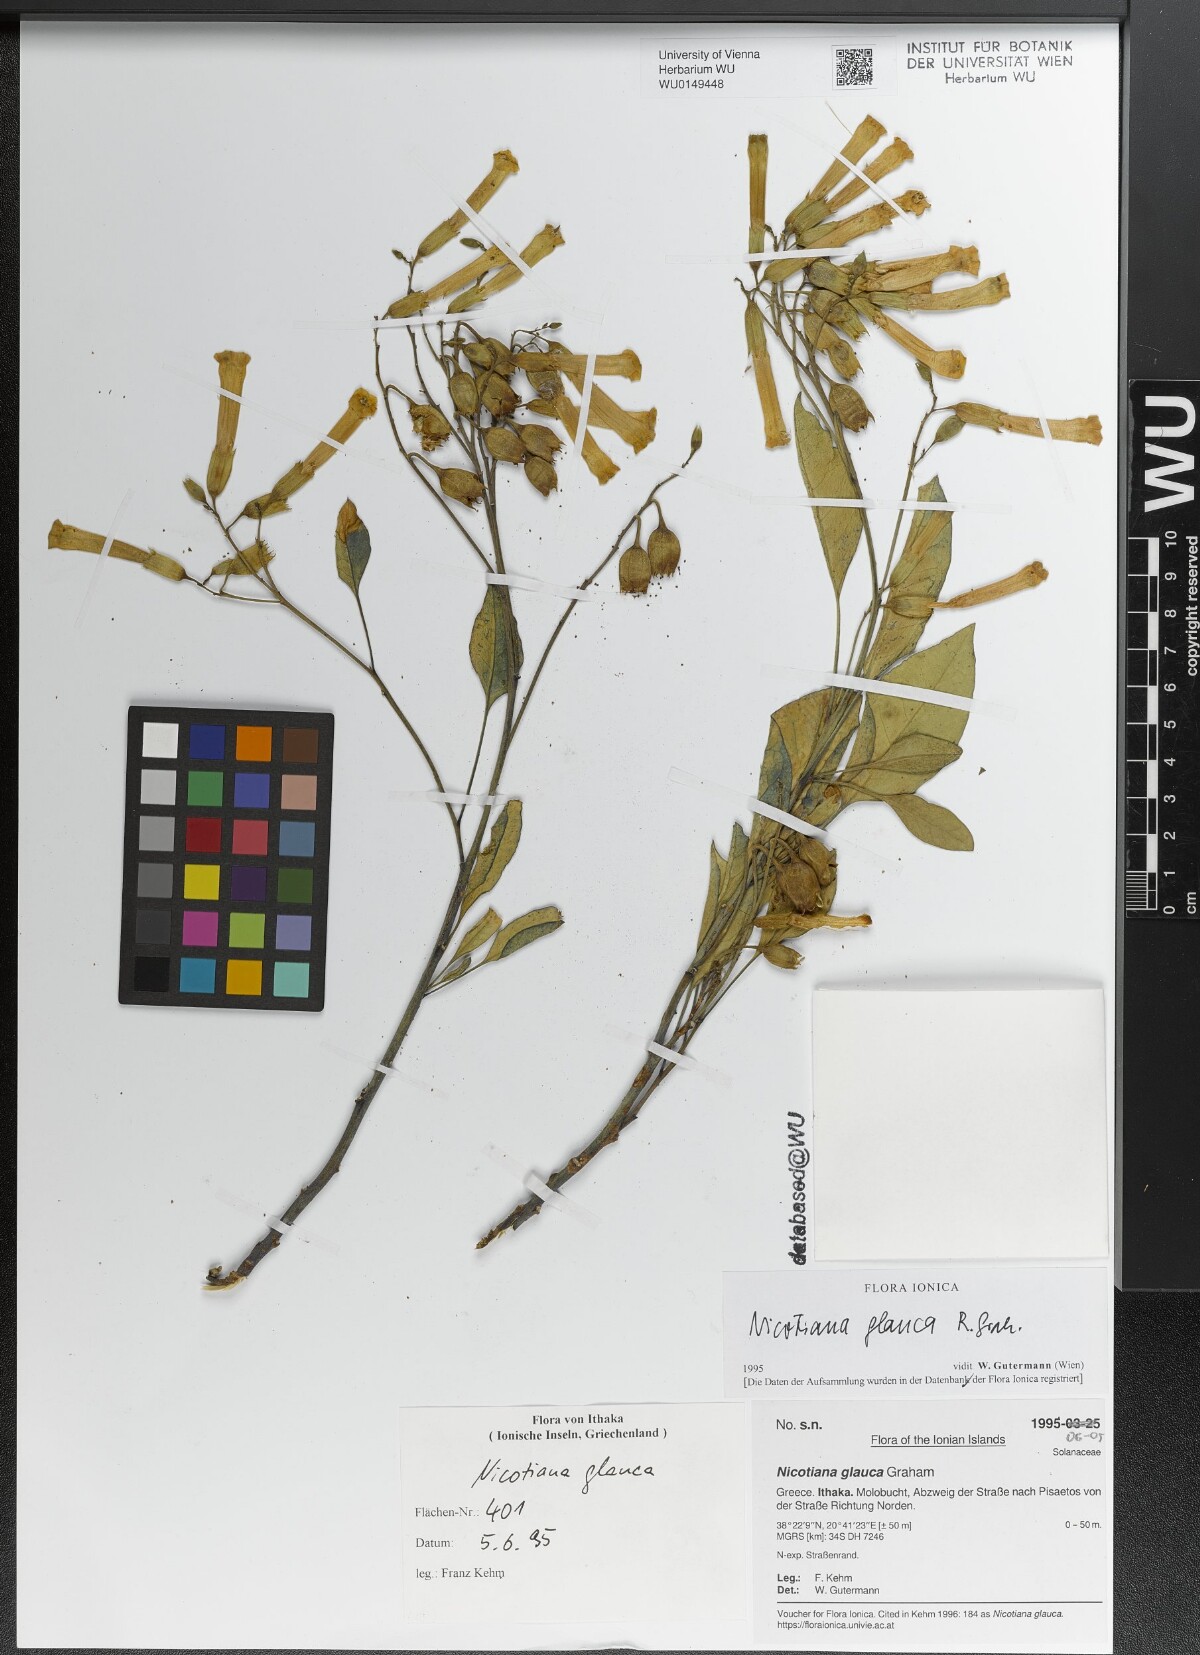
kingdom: Plantae
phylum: Tracheophyta
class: Magnoliopsida
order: Solanales
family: Solanaceae
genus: Nicotiana
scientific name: Nicotiana glauca
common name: Tree tobacco
